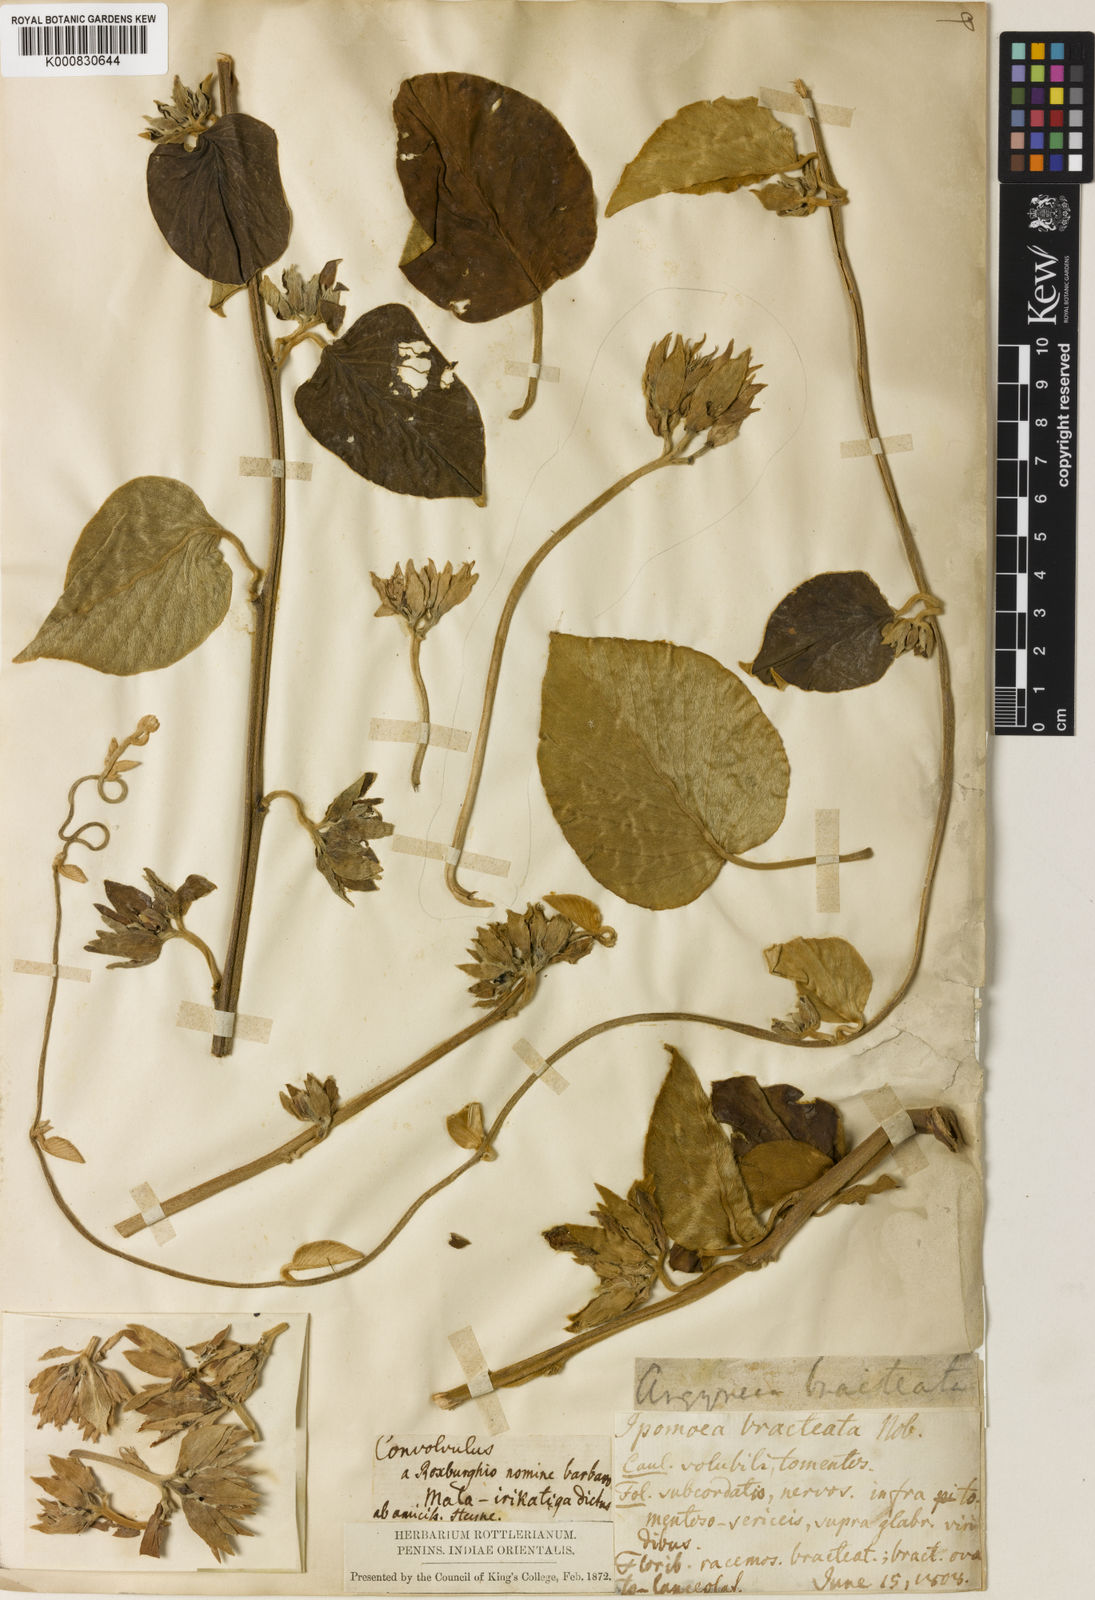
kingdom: Plantae
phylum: Tracheophyta
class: Magnoliopsida
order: Solanales
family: Convolvulaceae
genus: Argyreia
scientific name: Argyreia bracteata
